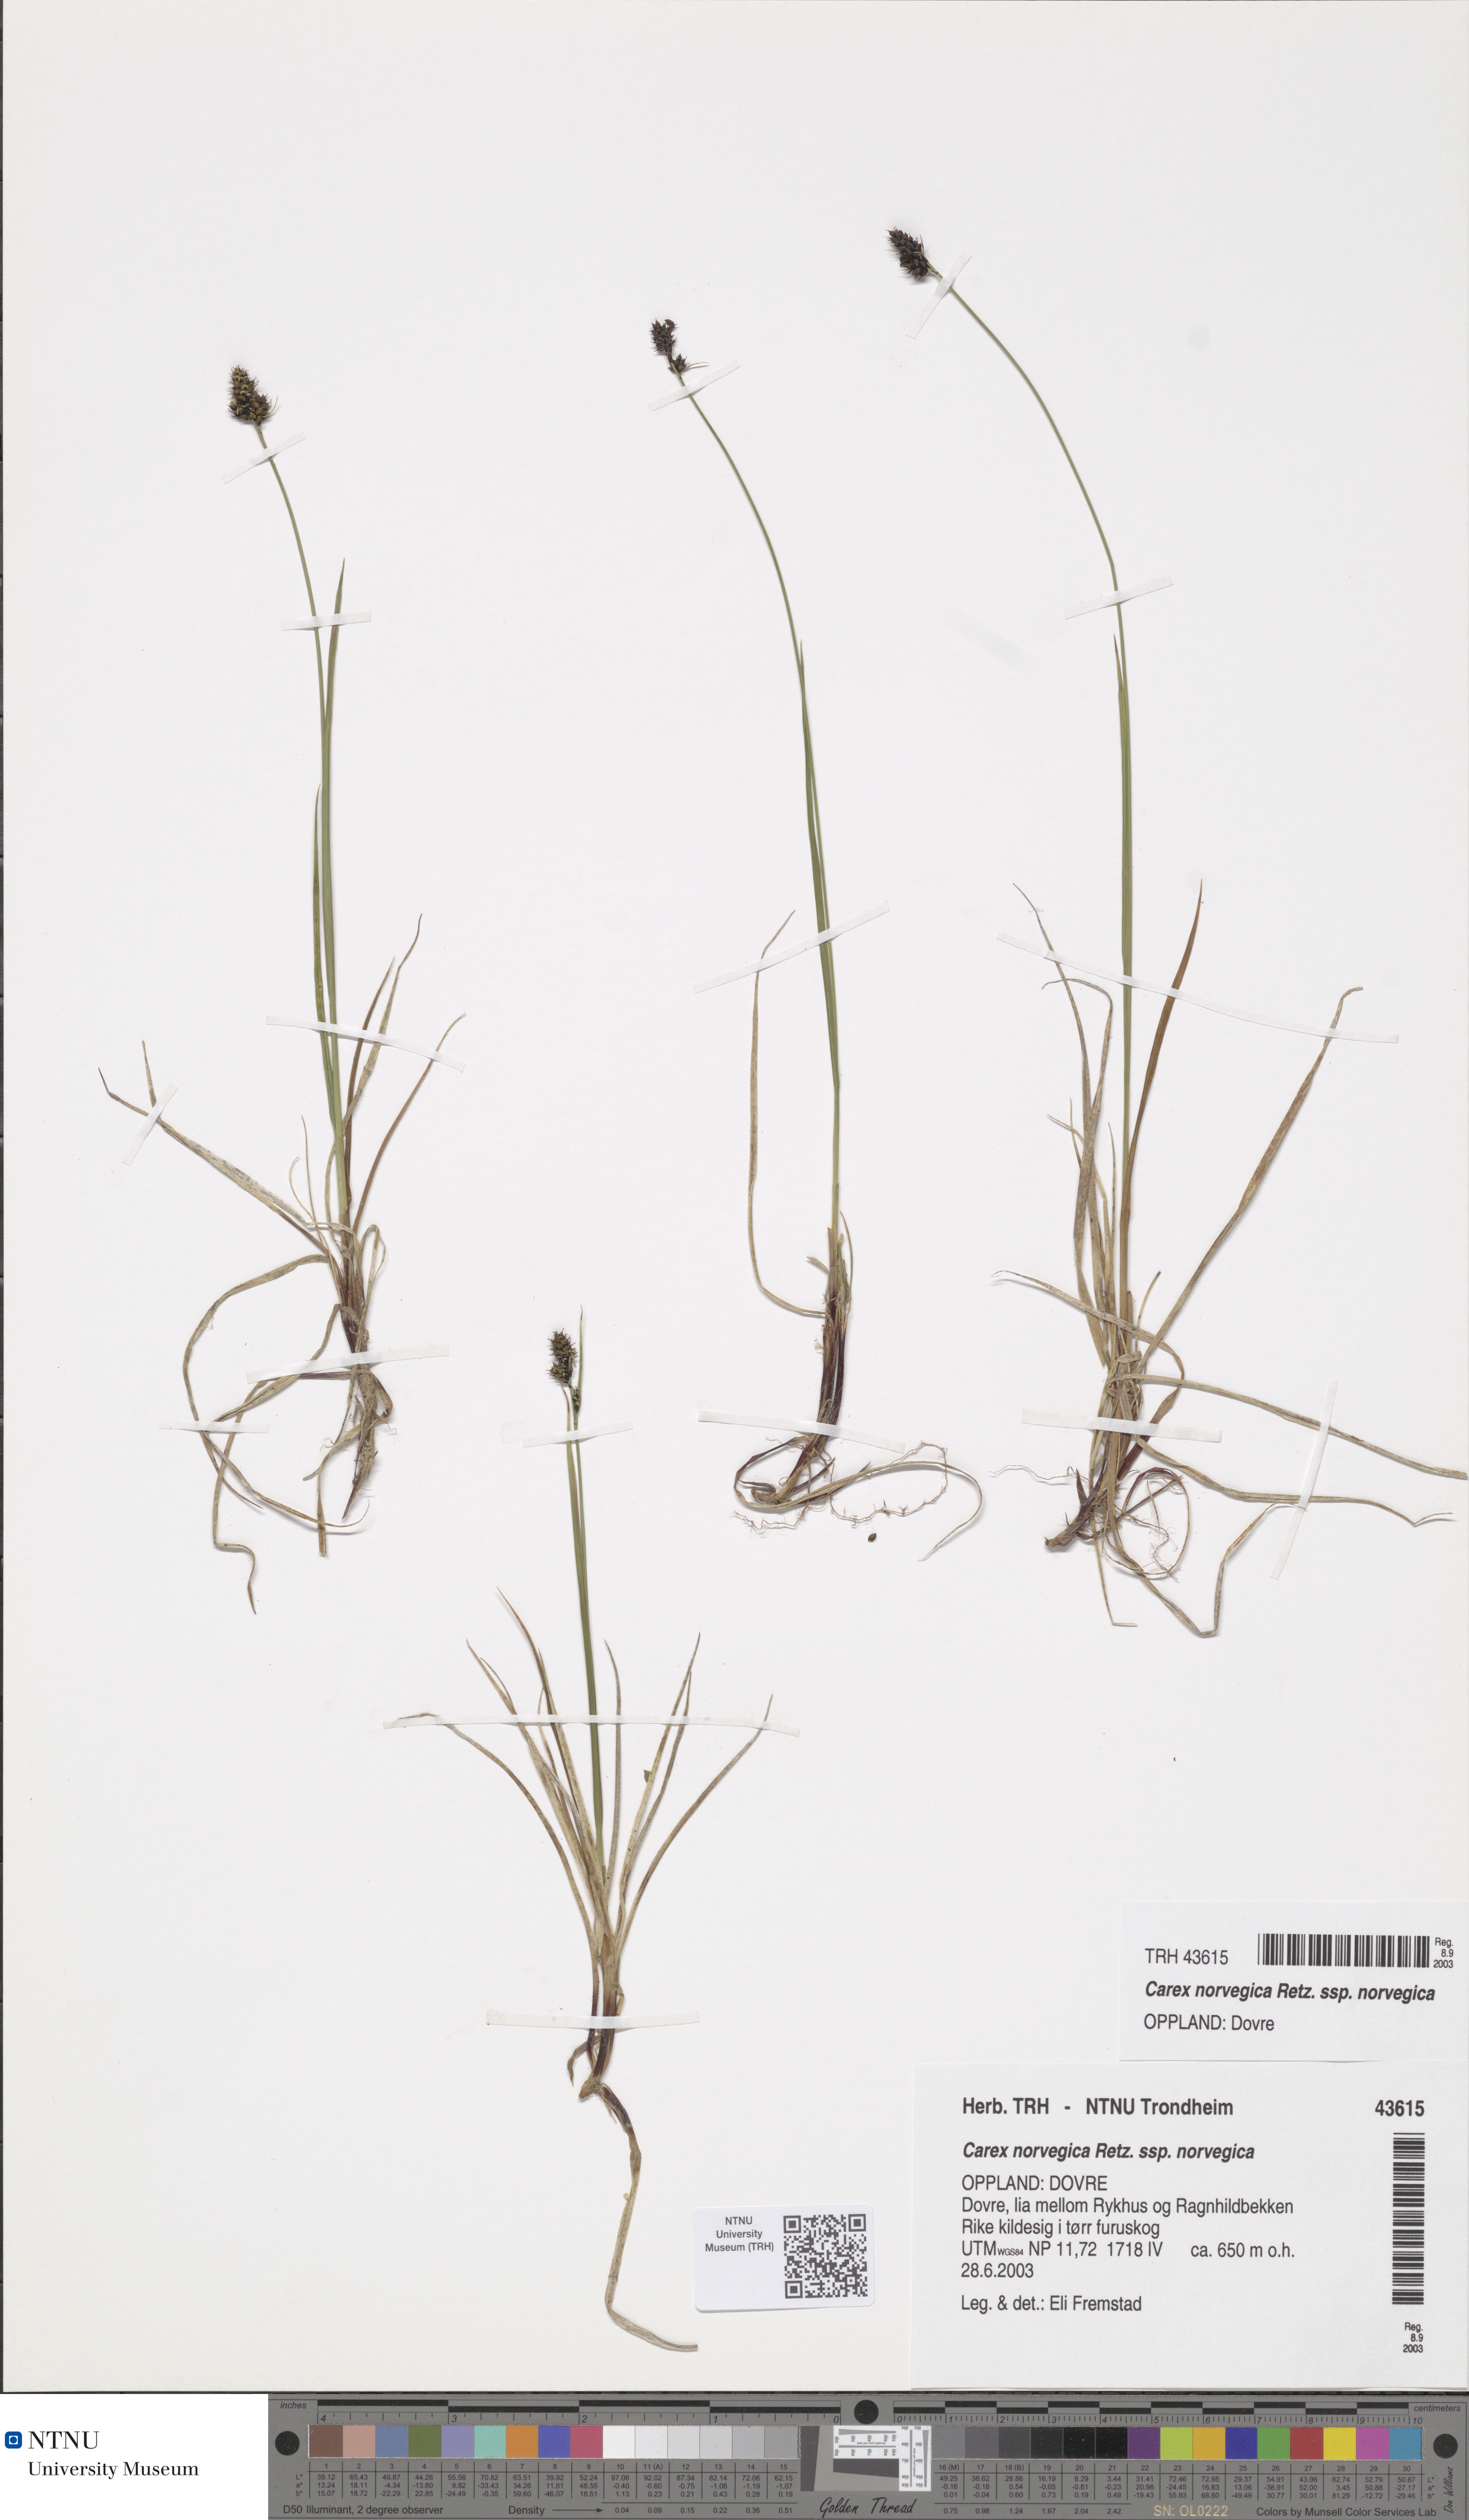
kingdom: Plantae
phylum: Tracheophyta
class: Liliopsida
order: Poales
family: Cyperaceae
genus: Carex
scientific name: Carex norvegica
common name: Close-headed alpine-sedge
